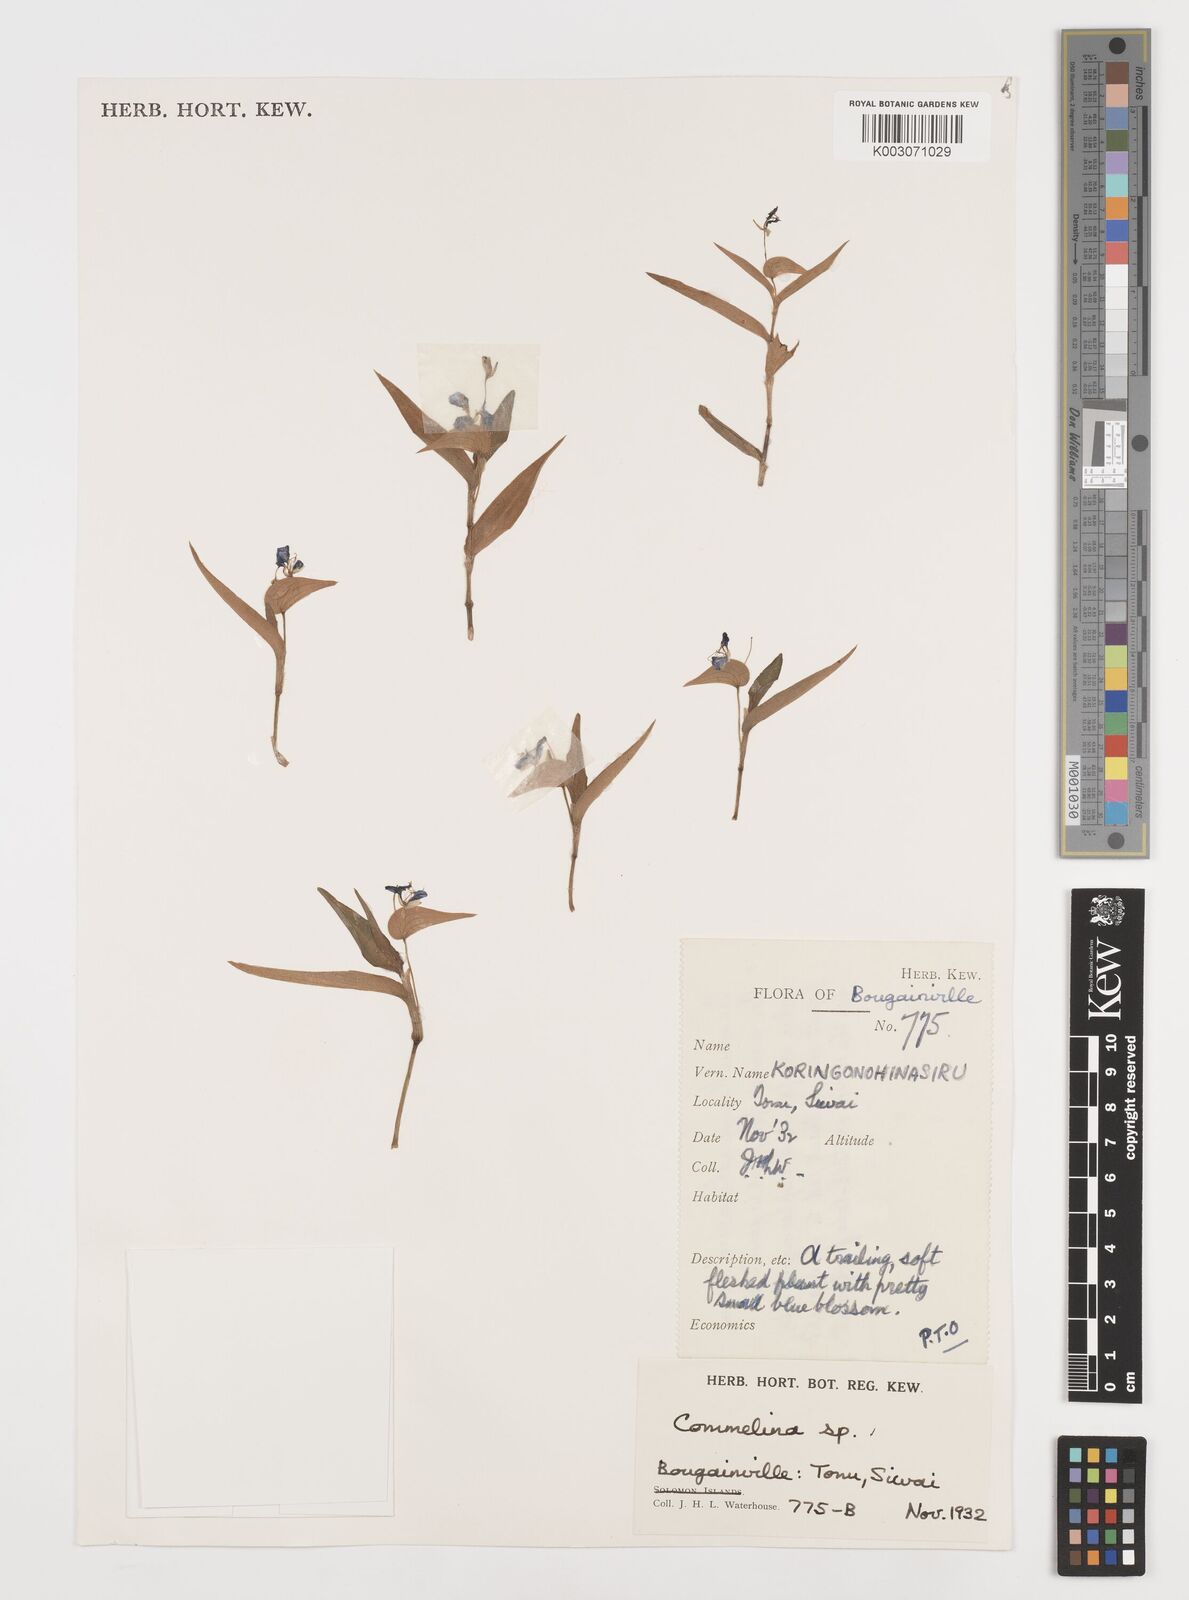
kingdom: Plantae
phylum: Tracheophyta
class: Liliopsida
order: Commelinales
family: Commelinaceae
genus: Commelina
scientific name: Commelina
